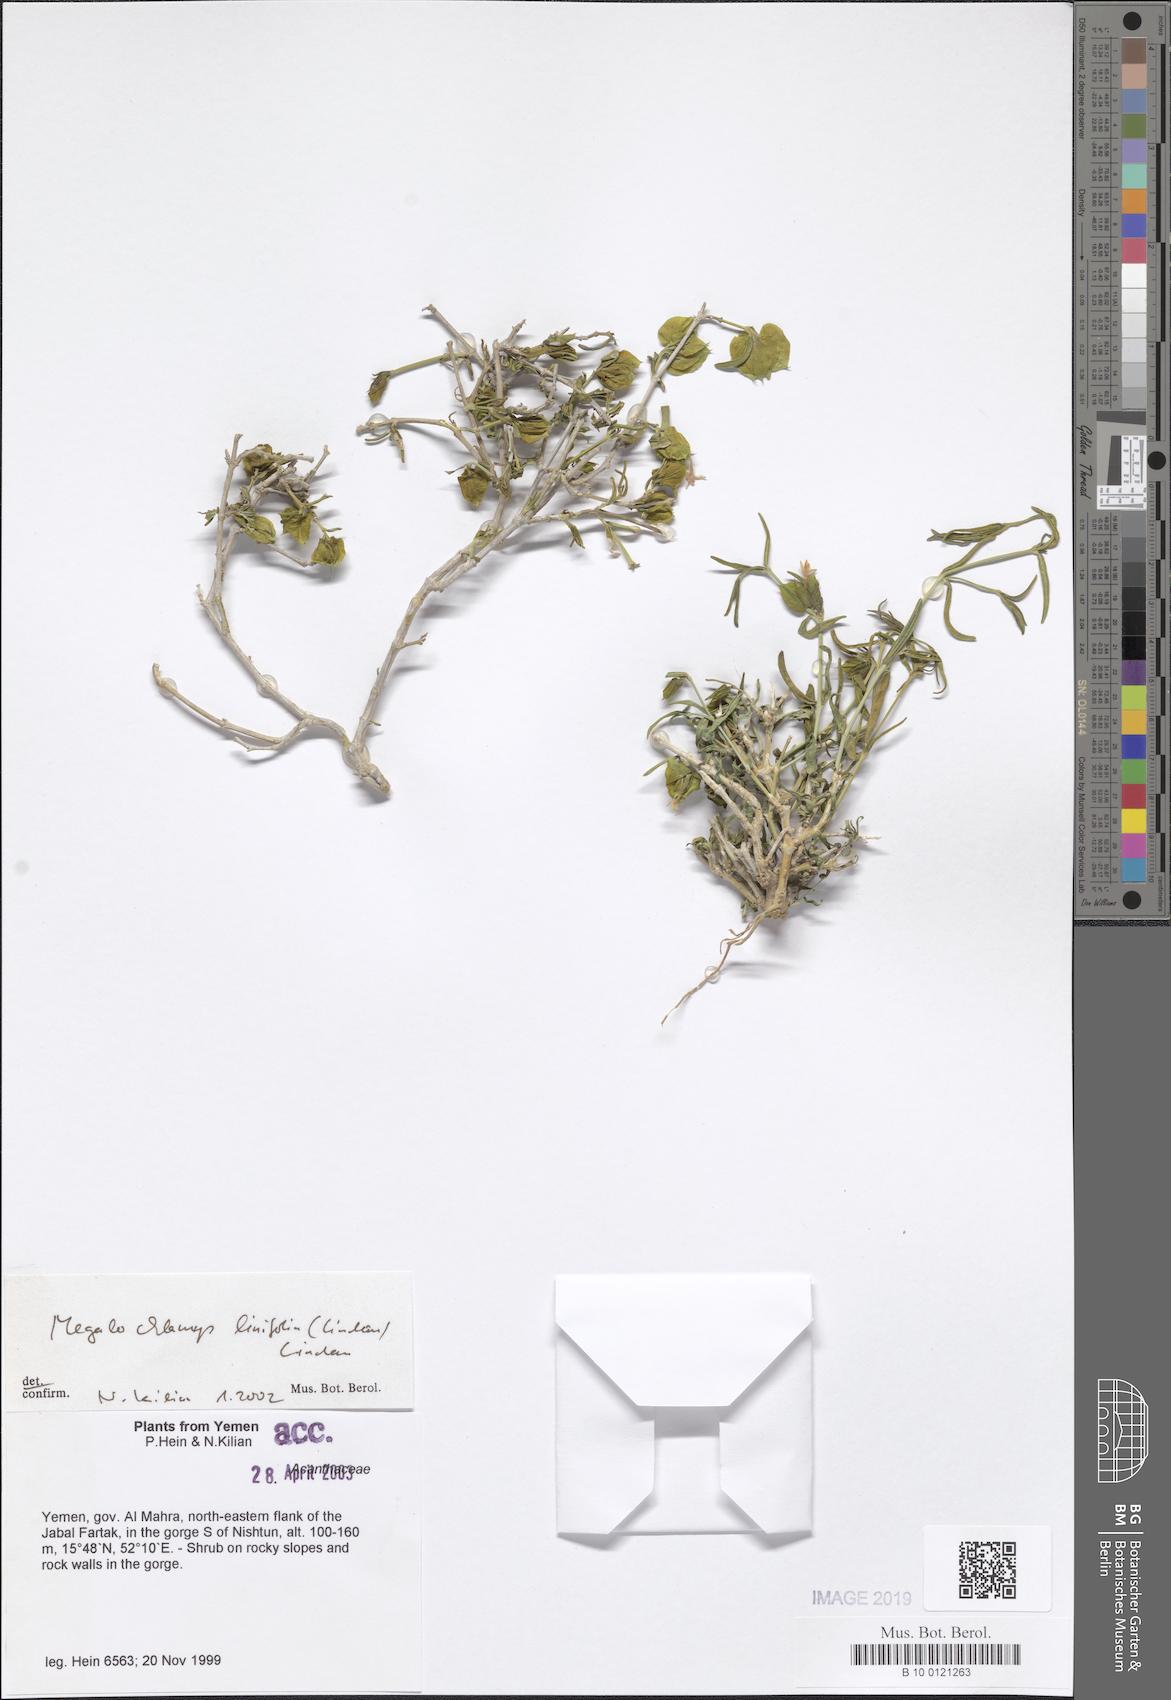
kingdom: Plantae
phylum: Tracheophyta
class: Magnoliopsida
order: Lamiales
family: Acanthaceae
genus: Megalochlamys
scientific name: Megalochlamys linifolia
